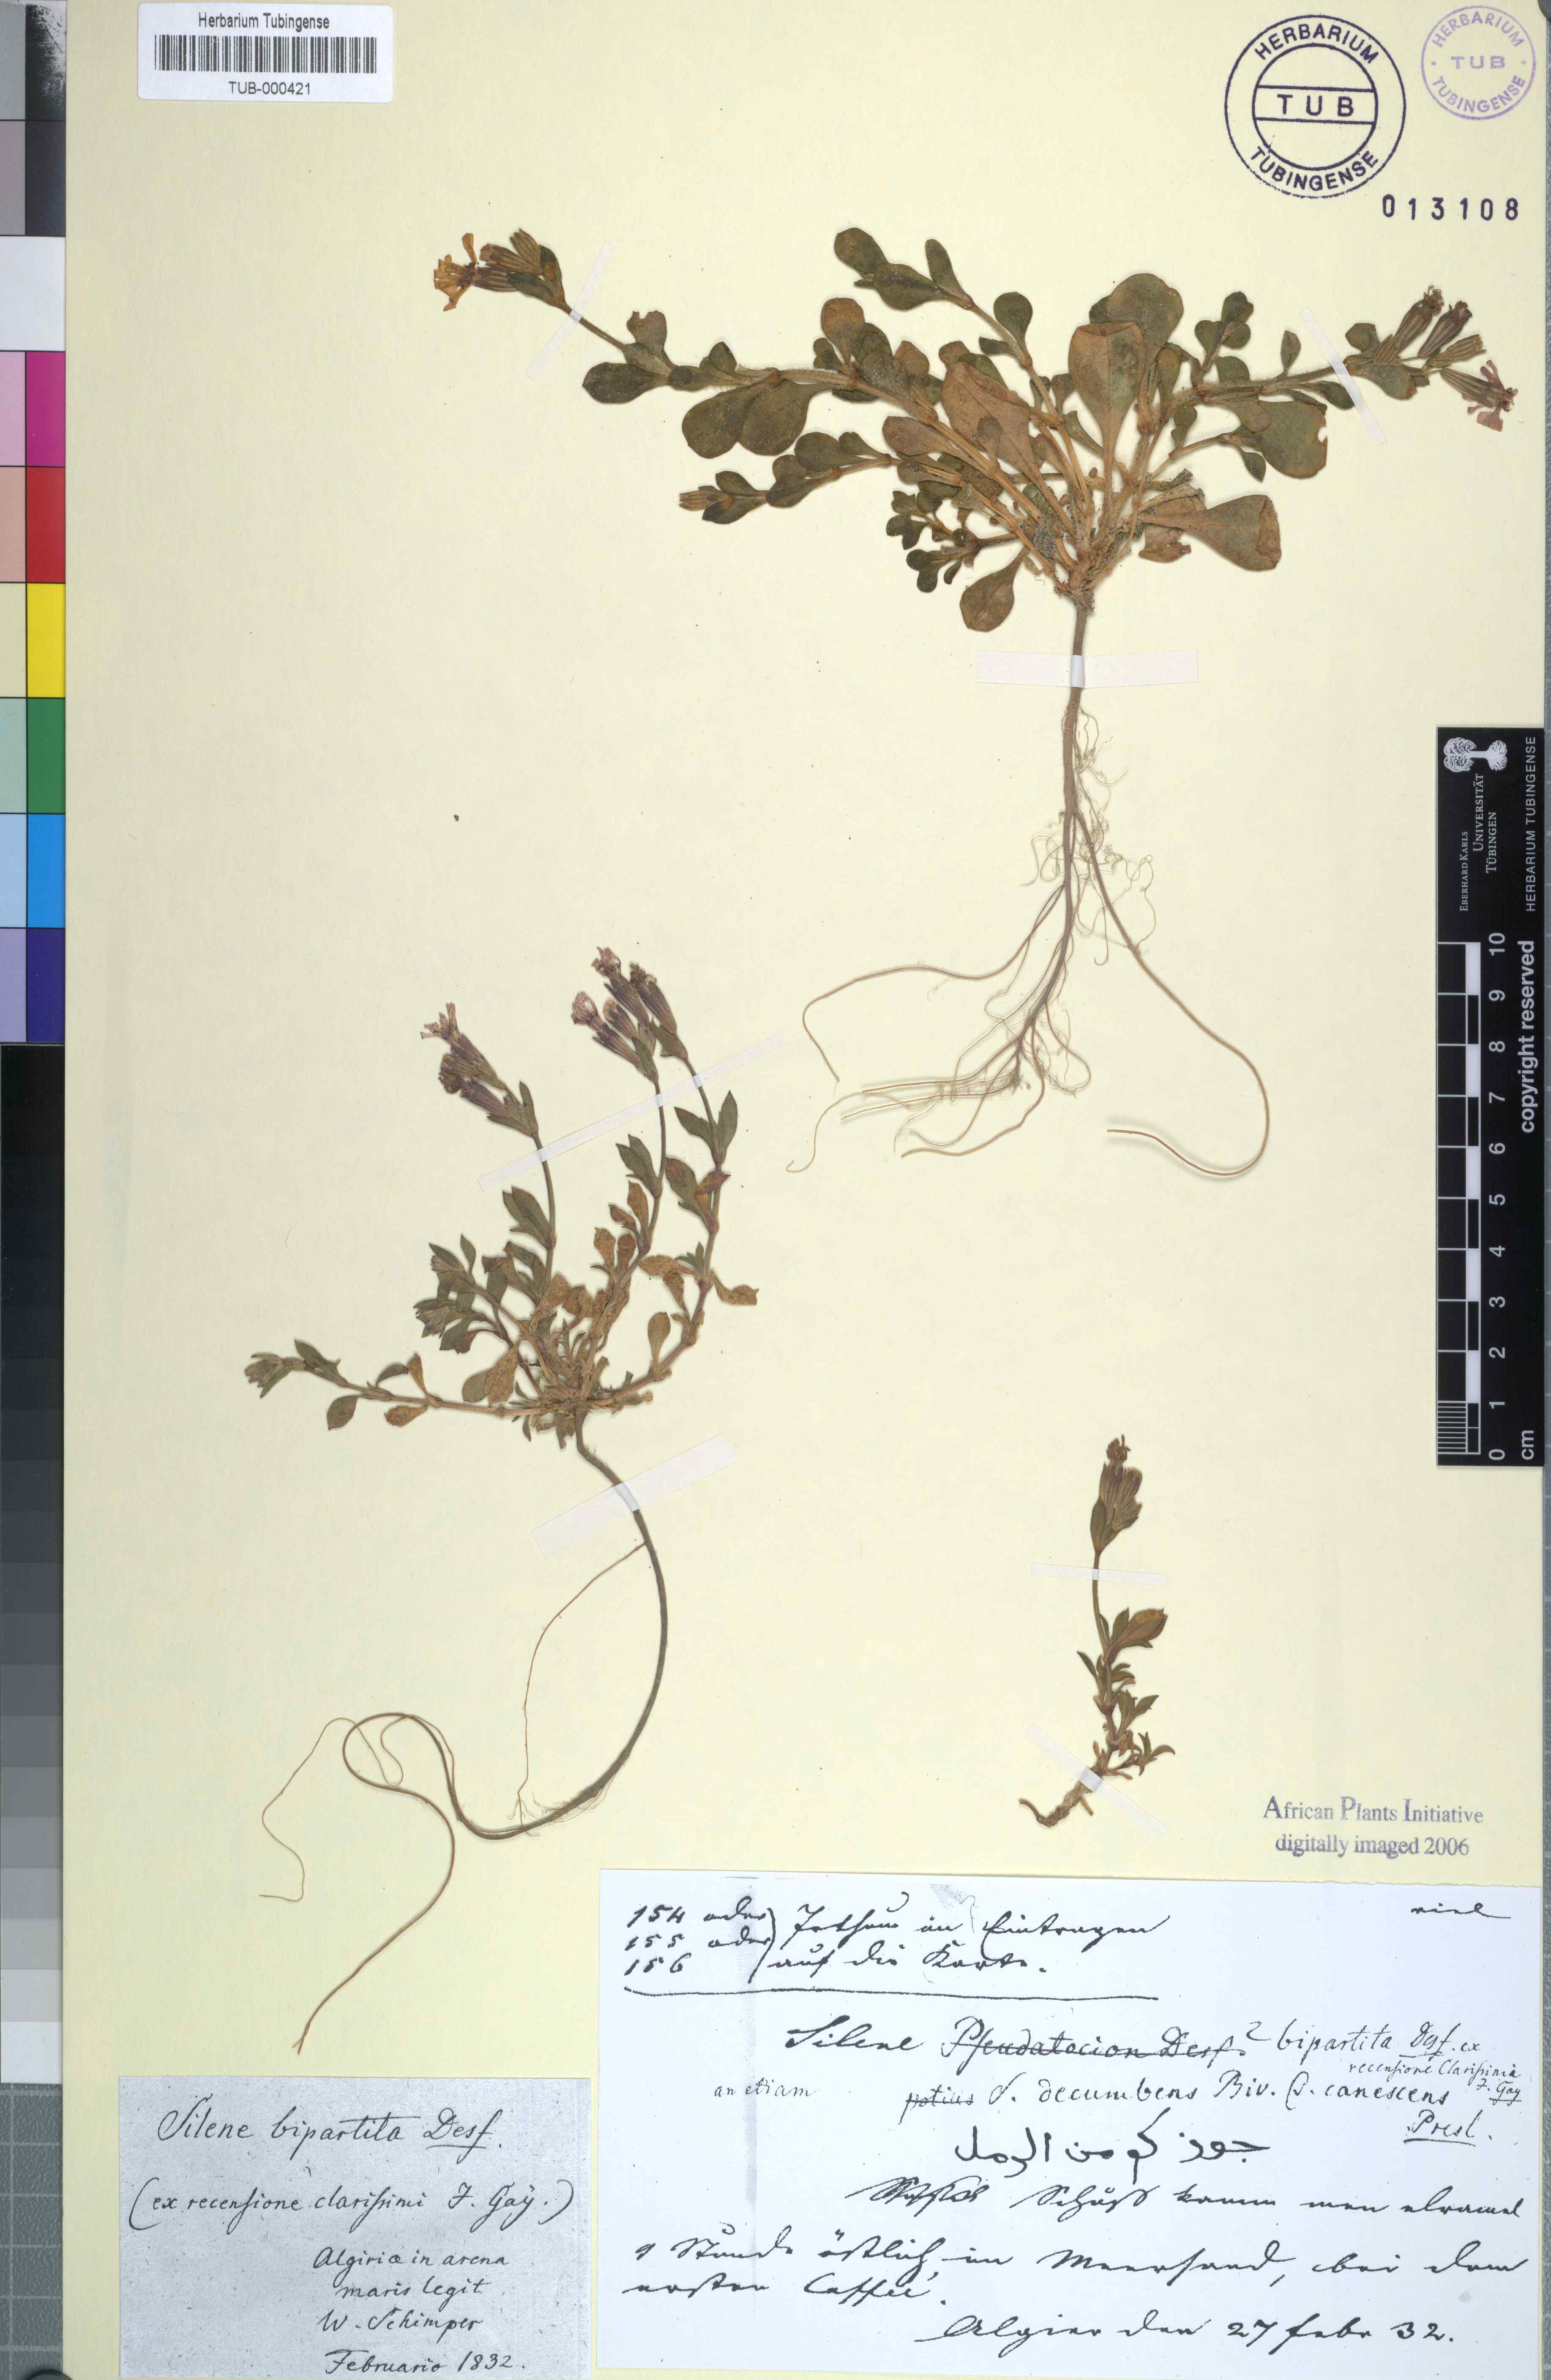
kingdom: Plantae
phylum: Tracheophyta
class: Magnoliopsida
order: Caryophyllales
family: Caryophyllaceae
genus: Silene
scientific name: Silene colorata
